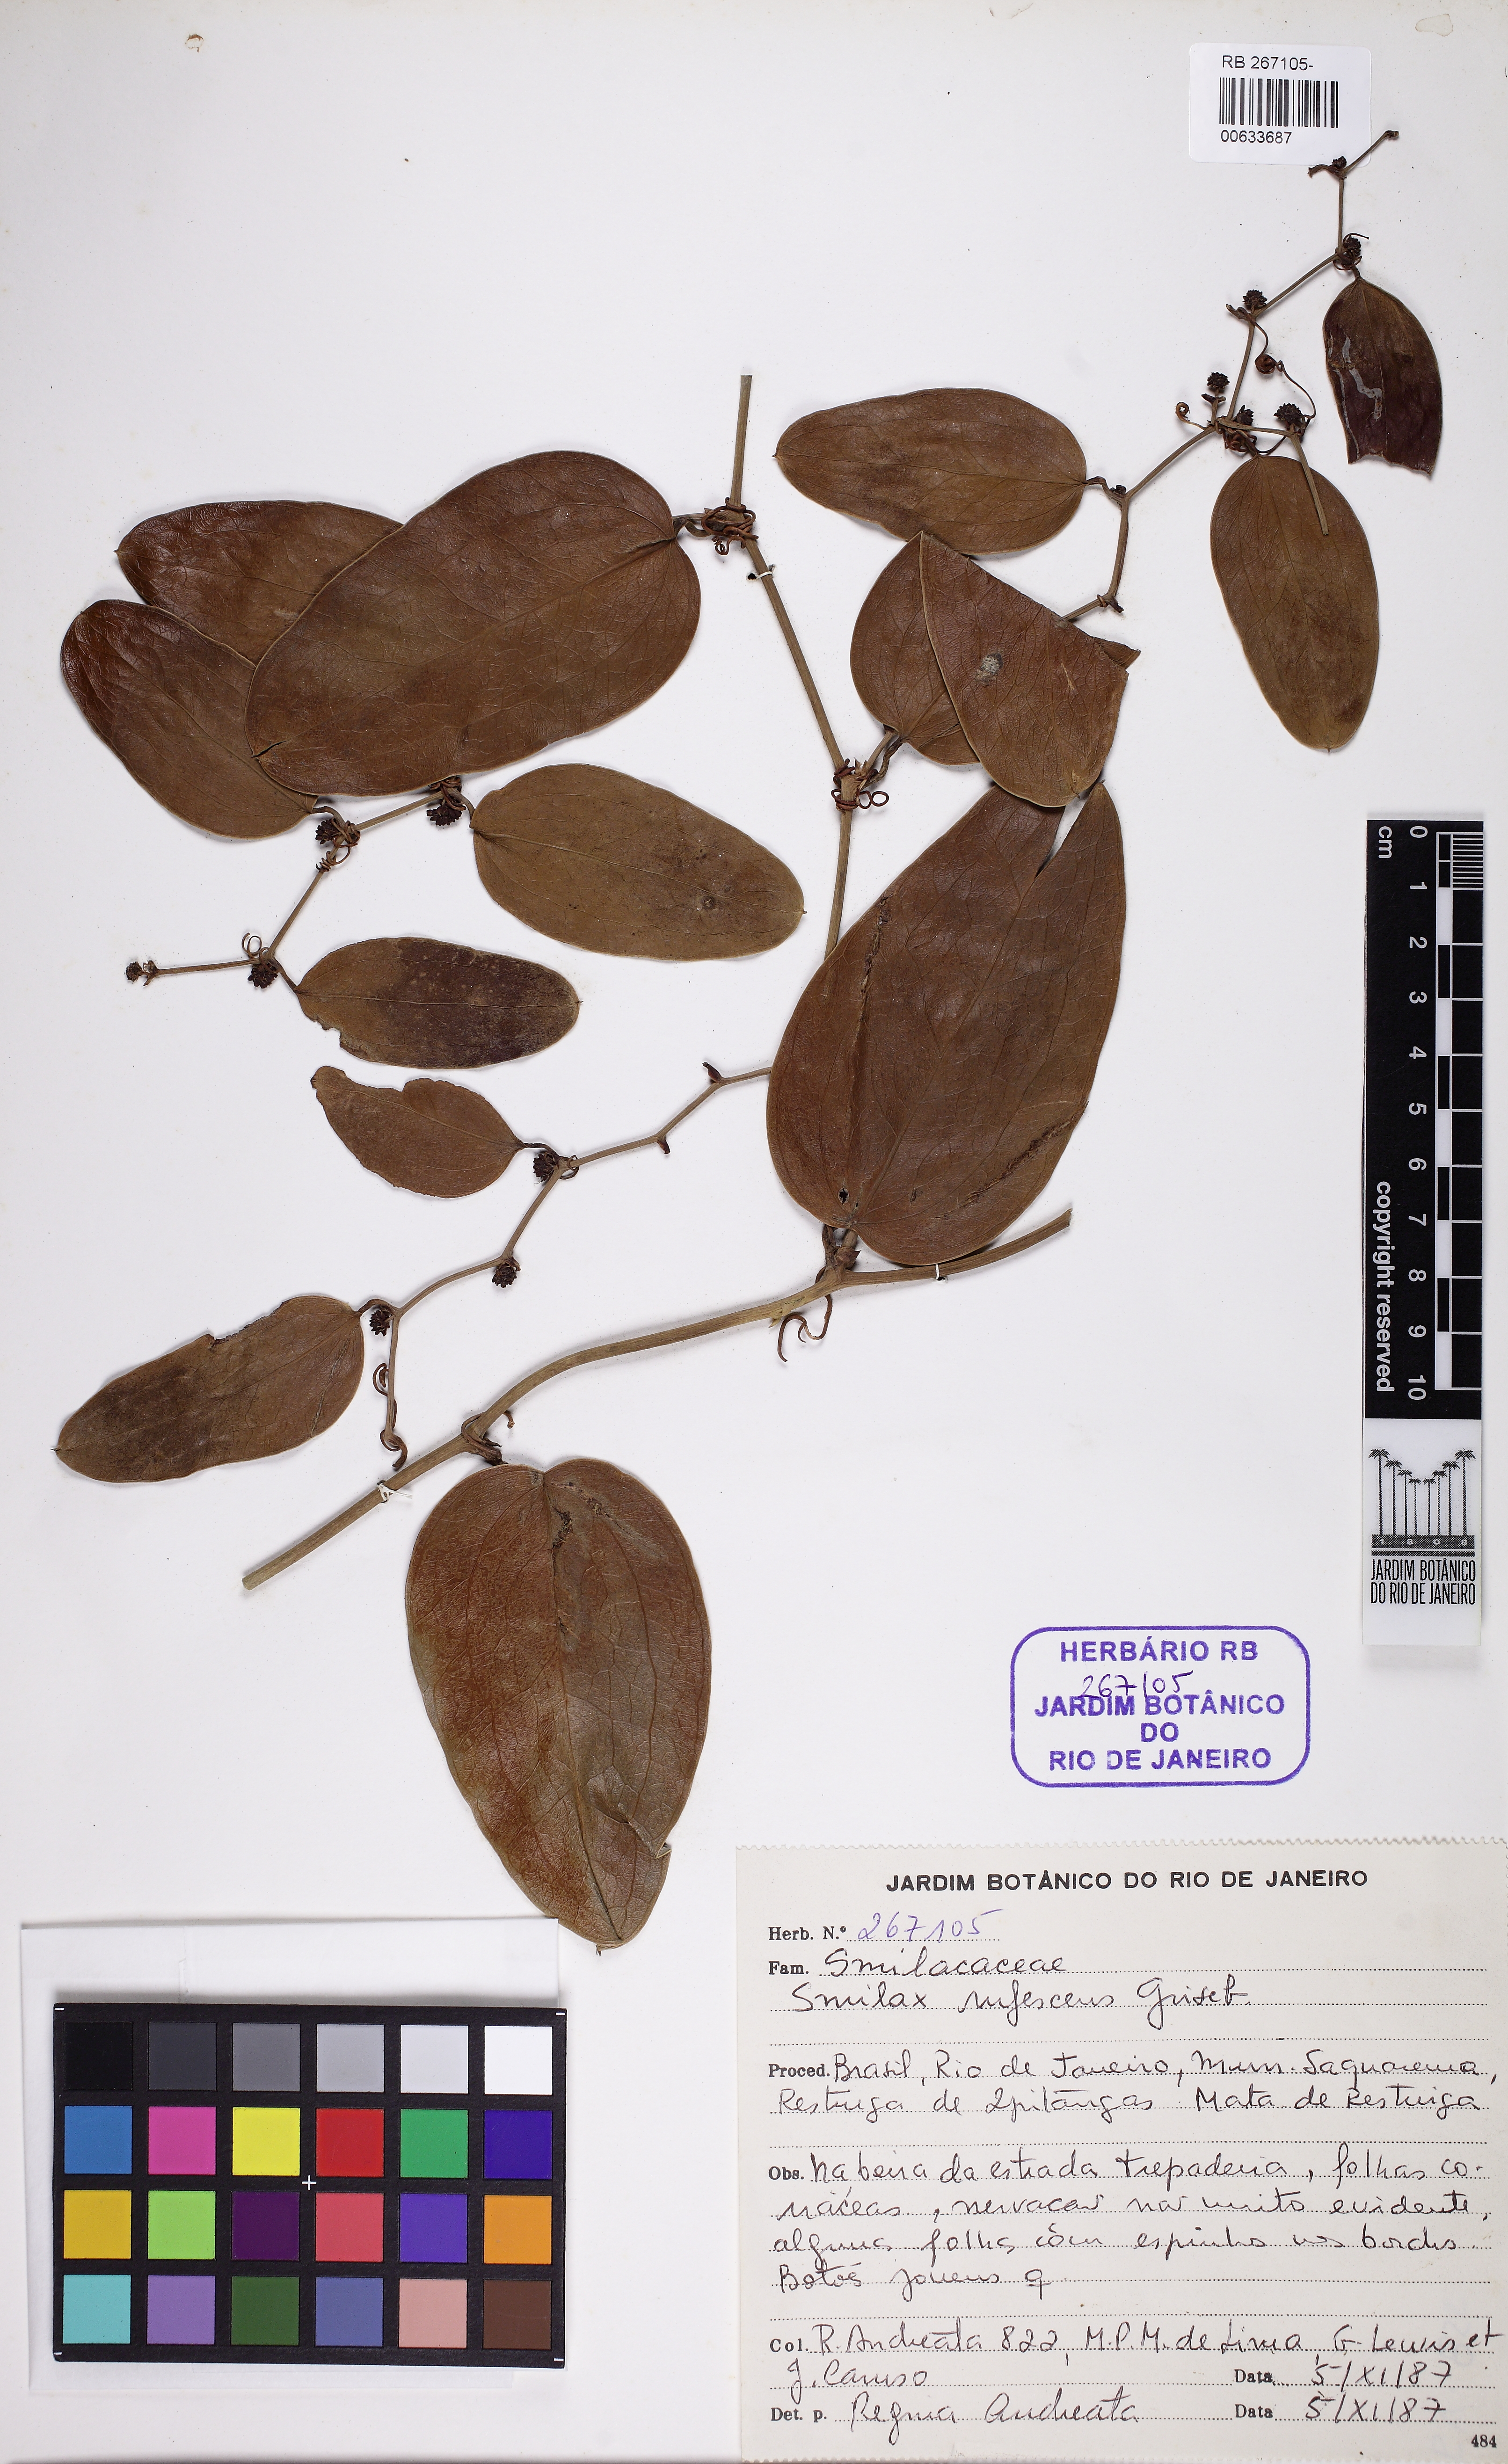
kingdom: Plantae
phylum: Tracheophyta
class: Liliopsida
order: Liliales
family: Smilacaceae
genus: Smilax
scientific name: Smilax rufescens
